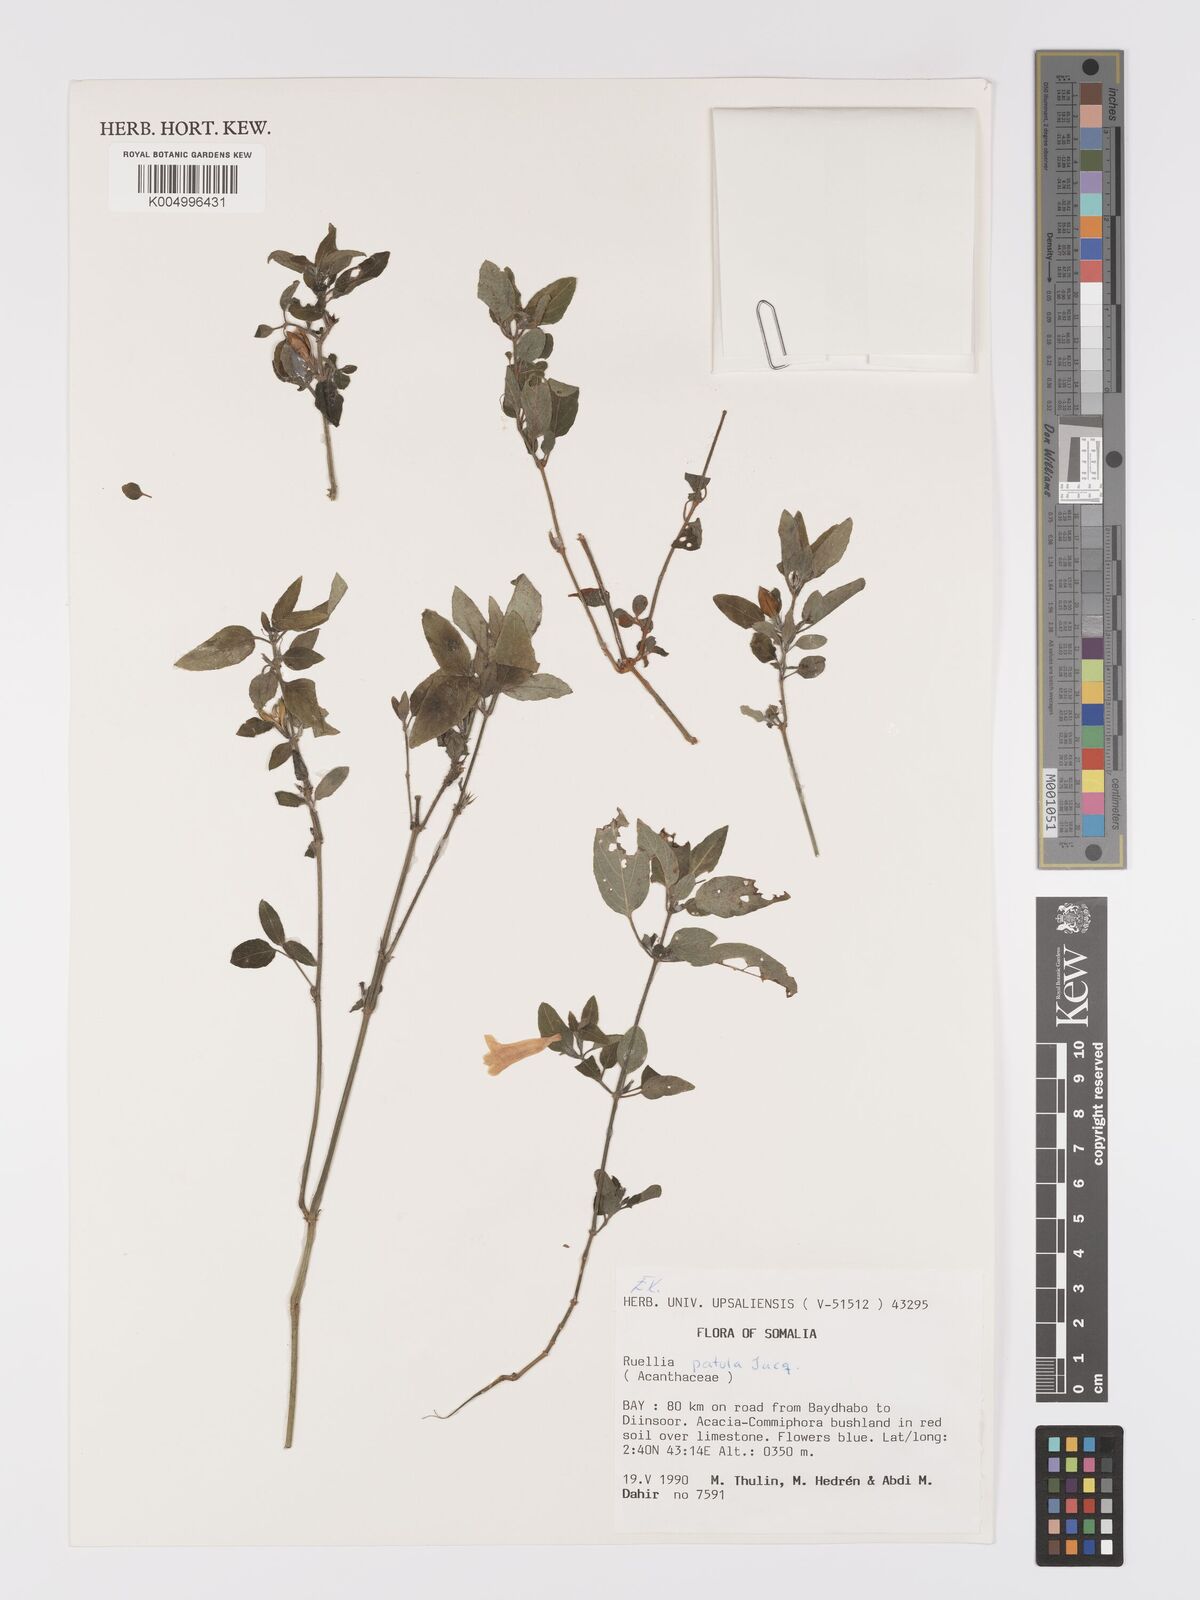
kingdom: Plantae
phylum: Tracheophyta
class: Magnoliopsida
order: Lamiales
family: Acanthaceae
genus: Ruellia
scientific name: Ruellia patula
